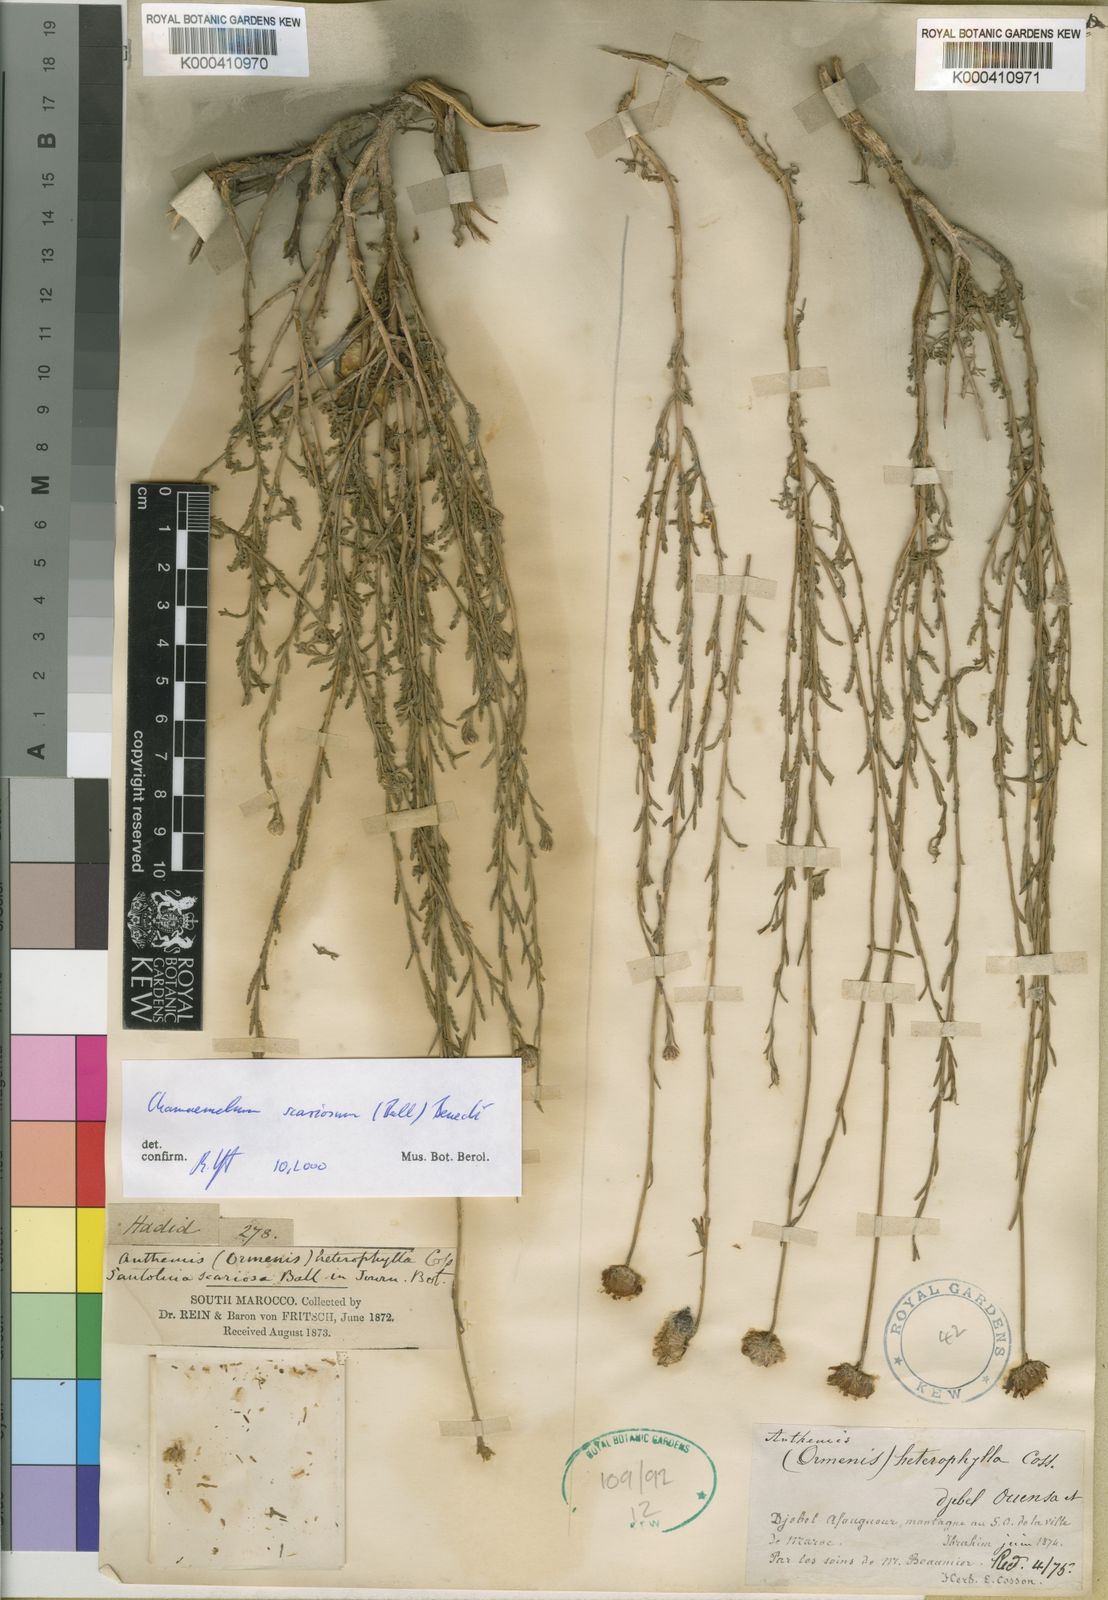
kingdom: Plantae
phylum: Tracheophyta
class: Magnoliopsida
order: Asterales
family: Asteraceae
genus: Chamaemelum
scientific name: Chamaemelum
